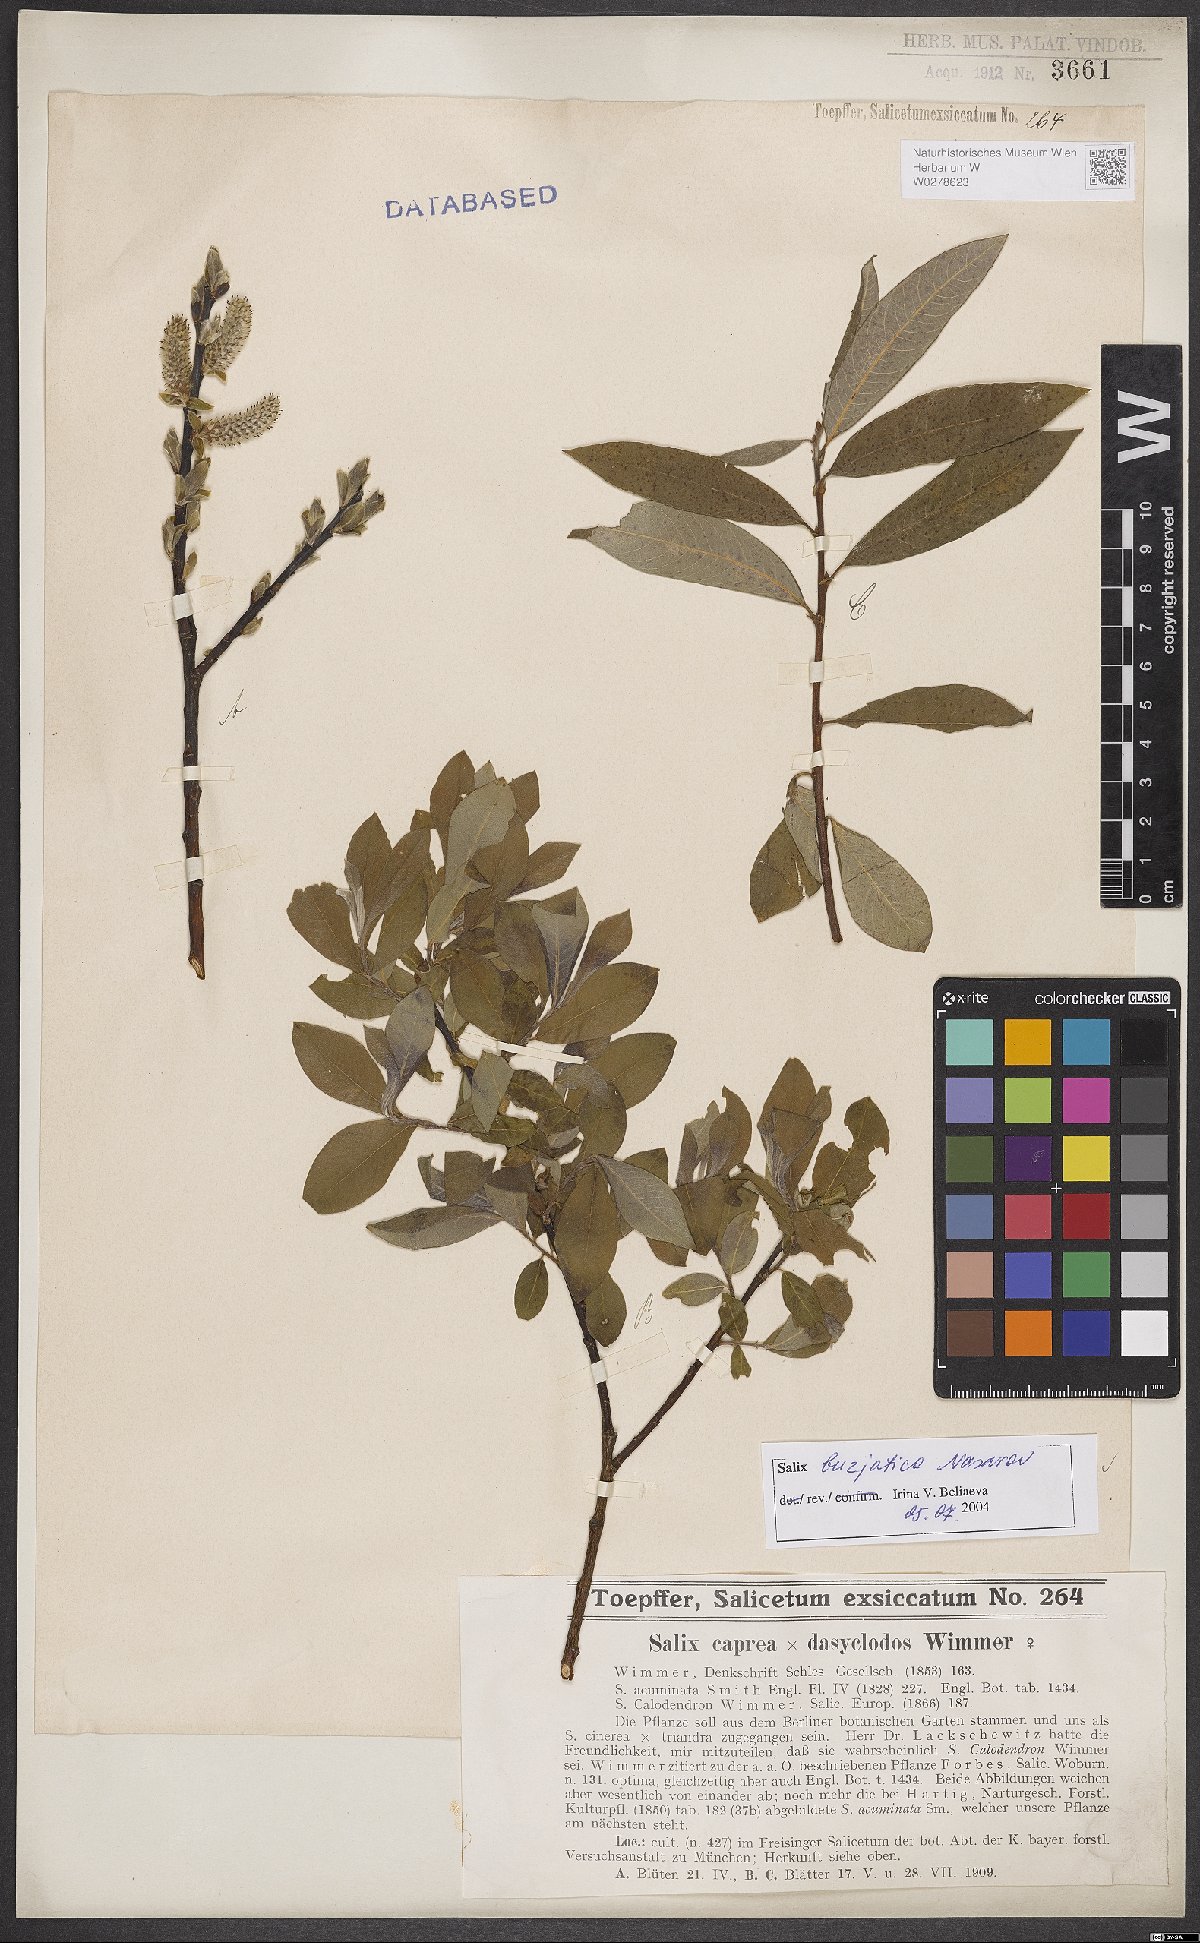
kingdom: Plantae
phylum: Tracheophyta
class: Magnoliopsida
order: Malpighiales
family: Salicaceae
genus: Salix
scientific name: Salix gmelinii
